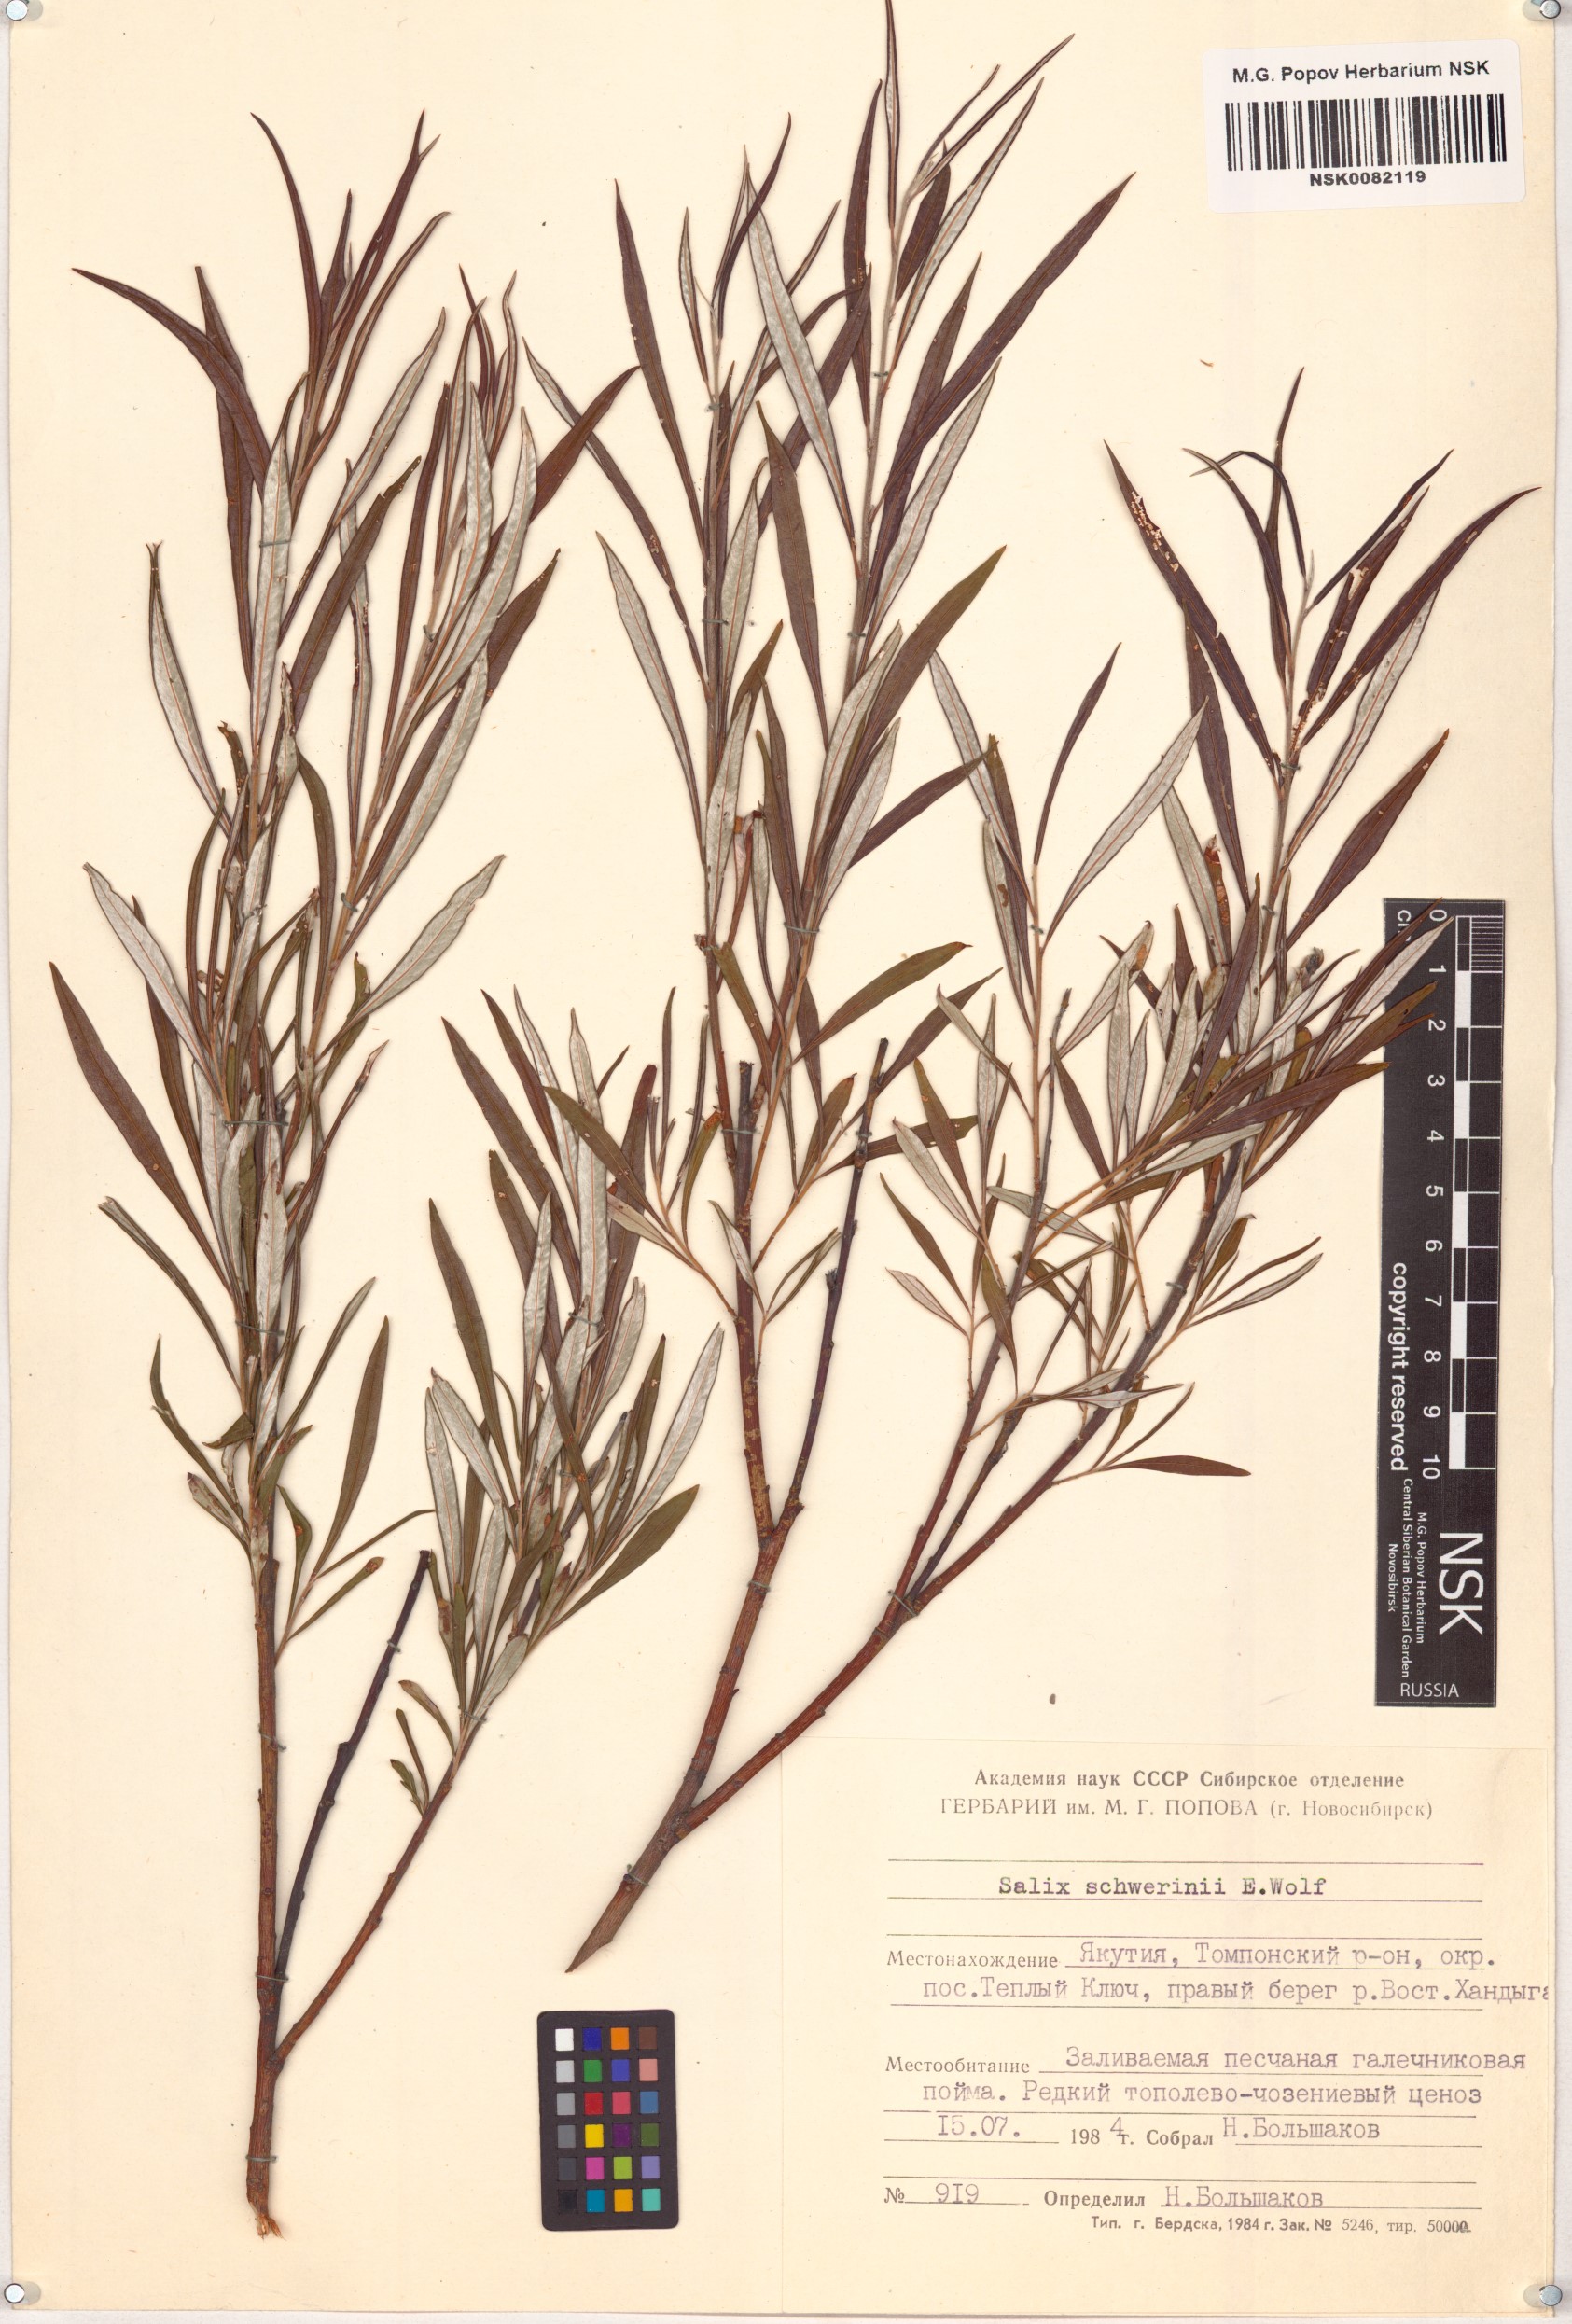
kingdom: Plantae
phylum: Tracheophyta
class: Magnoliopsida
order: Malpighiales
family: Salicaceae
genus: Salix
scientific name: Salix schwerinii
